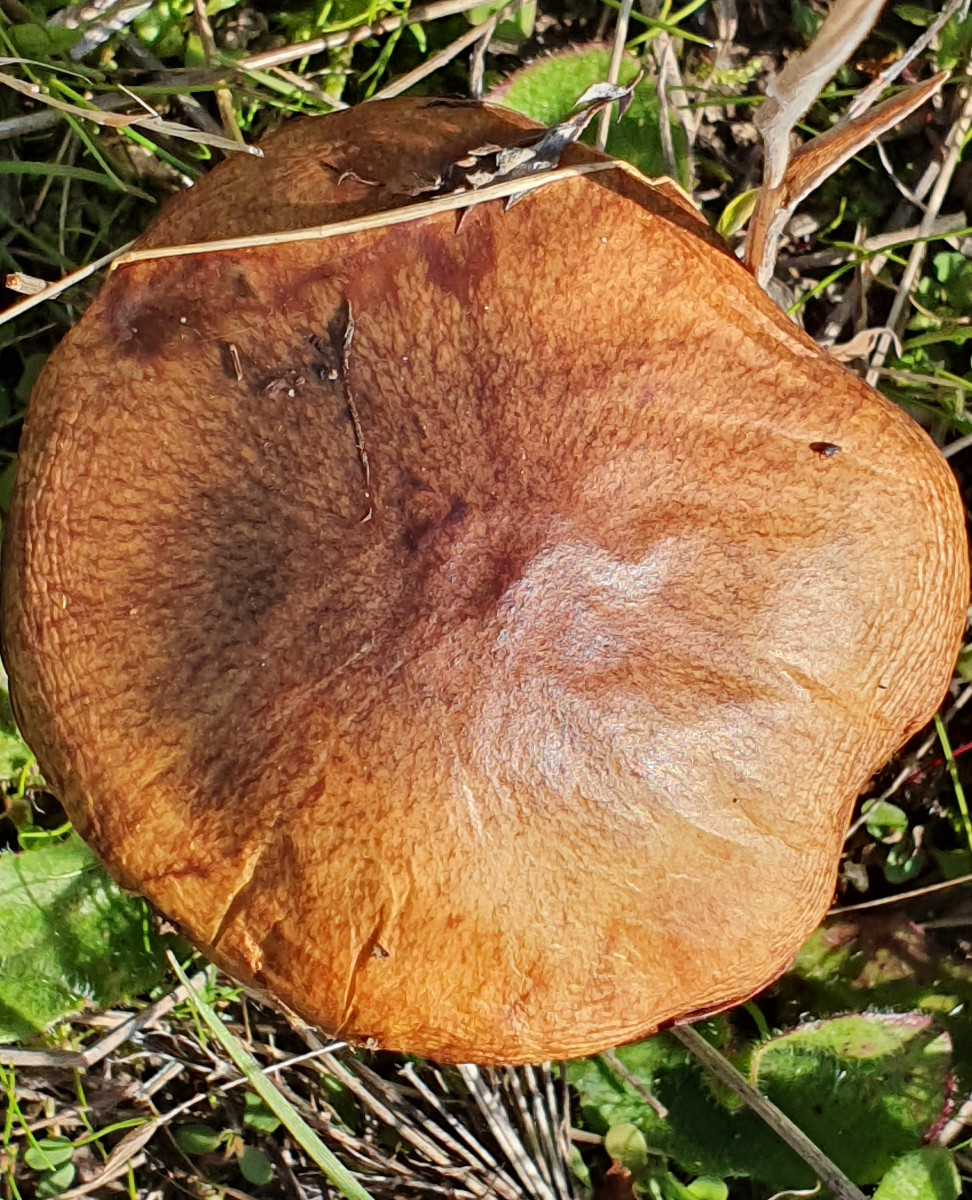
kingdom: Fungi
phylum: Basidiomycota
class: Agaricomycetes
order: Boletales
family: Suillaceae
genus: Suillus
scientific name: Suillus luteus
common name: brungul slimrørhat
